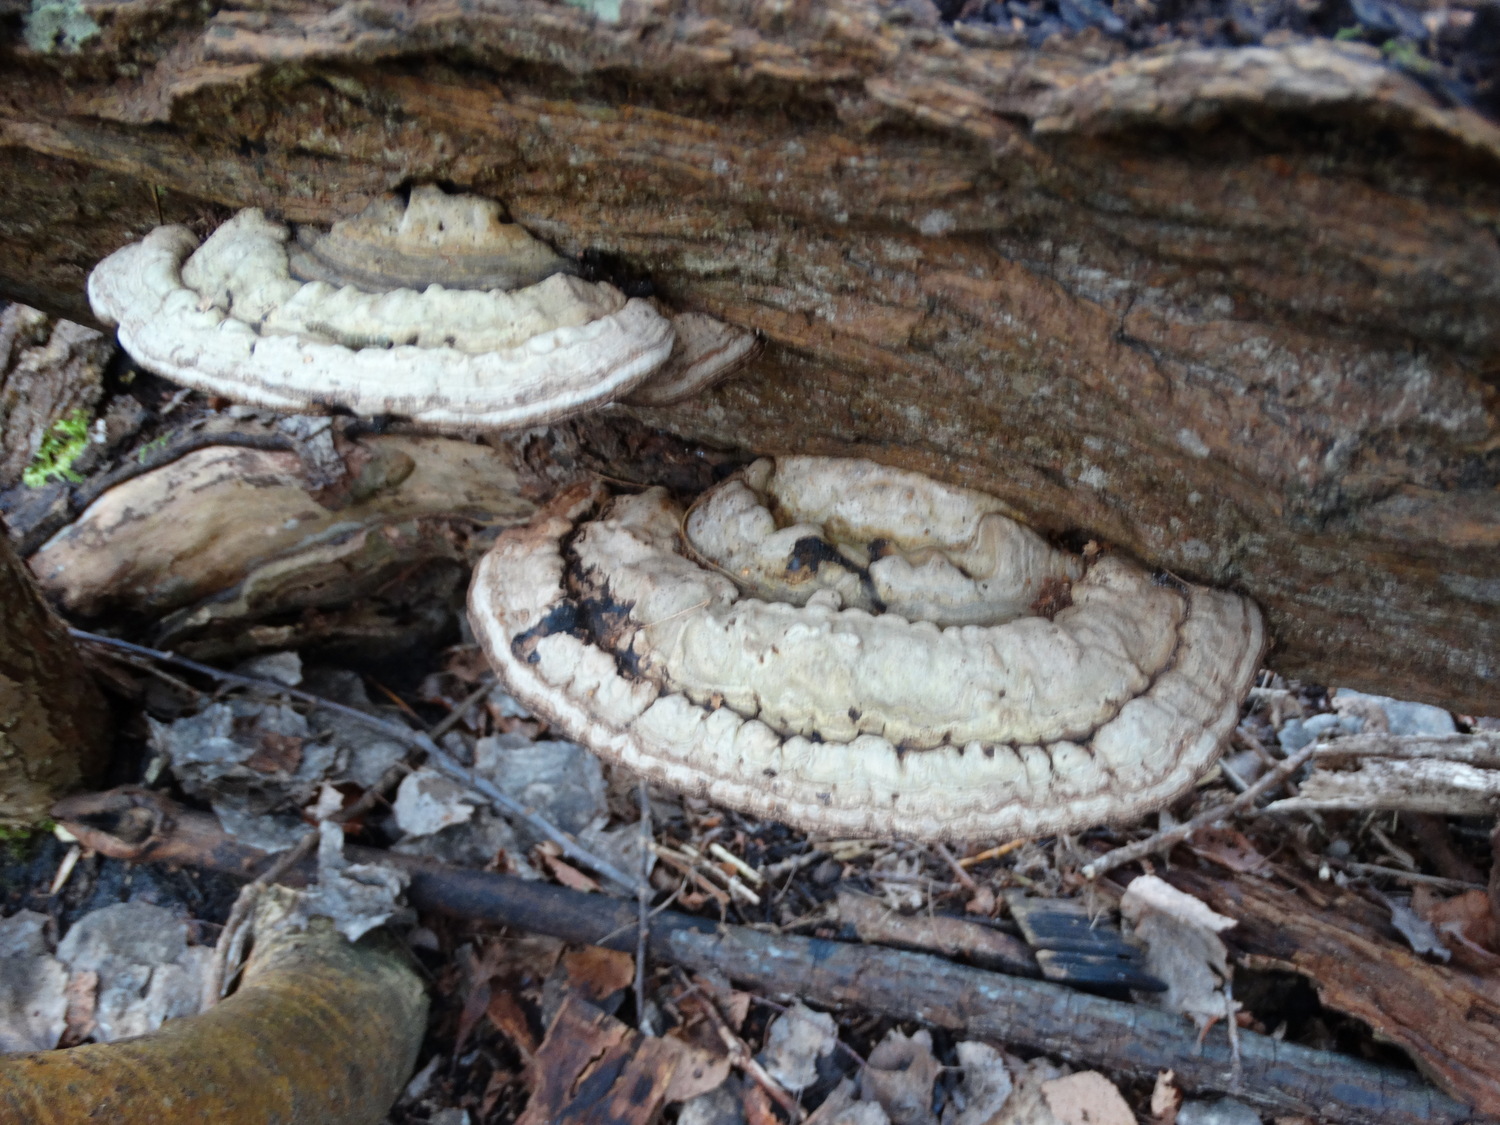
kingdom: Fungi
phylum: Basidiomycota
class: Agaricomycetes
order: Polyporales
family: Polyporaceae
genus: Ganoderma
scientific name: Ganoderma applanatum
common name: flad lakporesvamp
